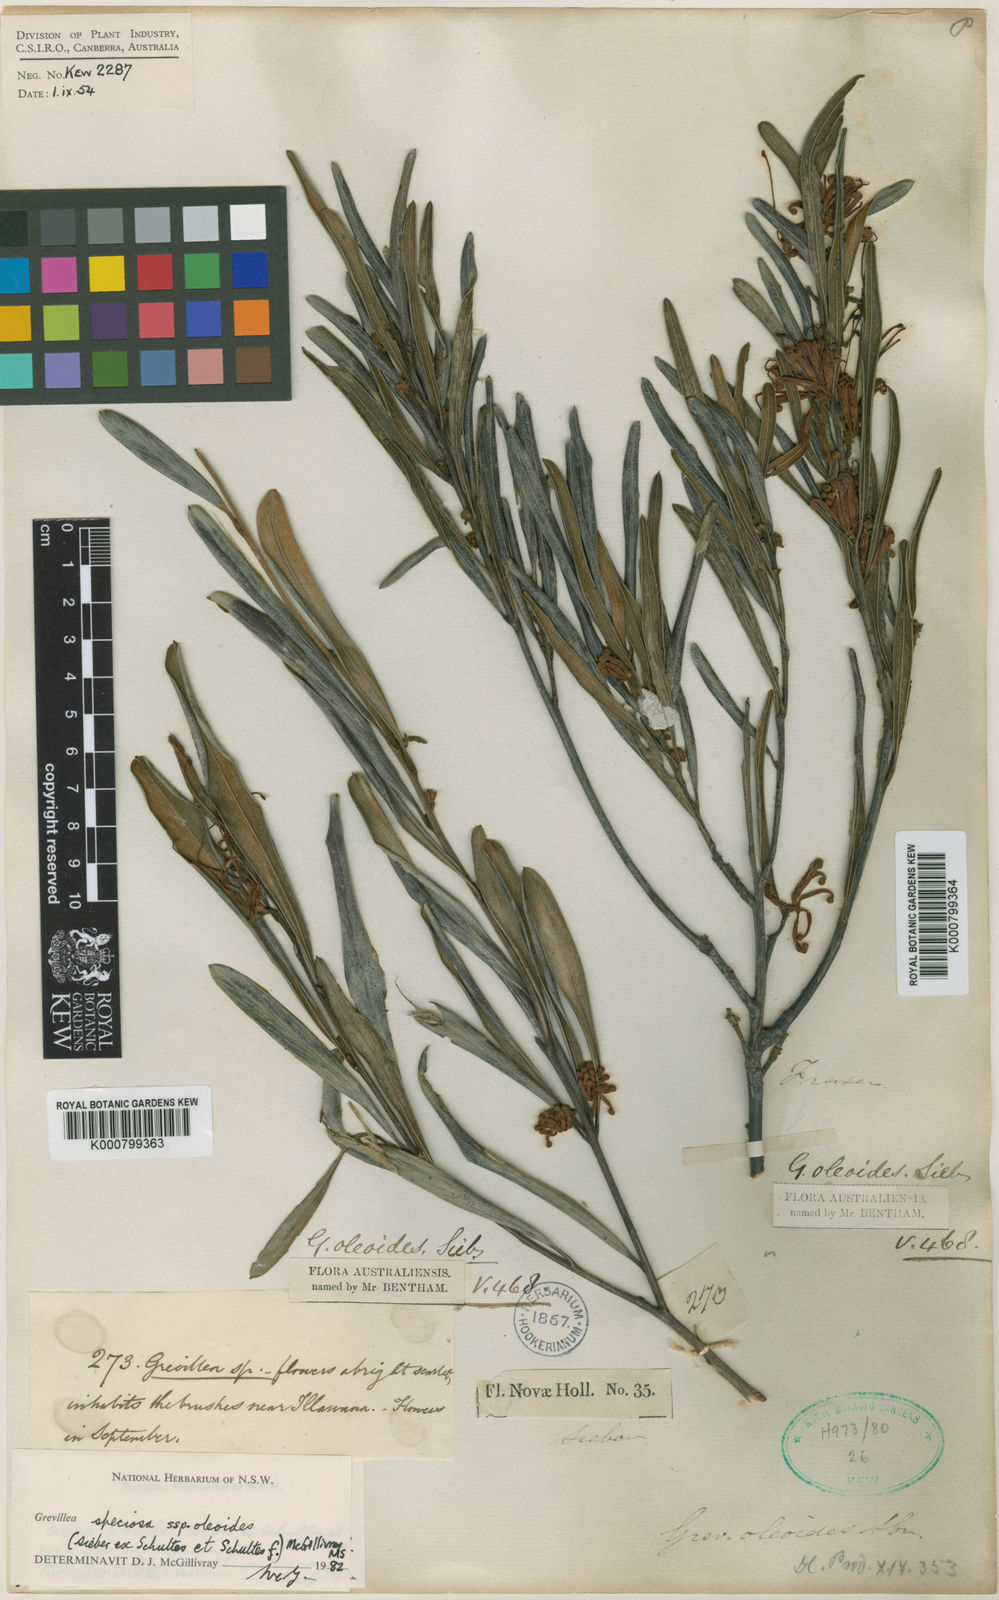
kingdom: Plantae
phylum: Tracheophyta
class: Magnoliopsida
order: Proteales
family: Proteaceae
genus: Grevillea
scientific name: Grevillea
